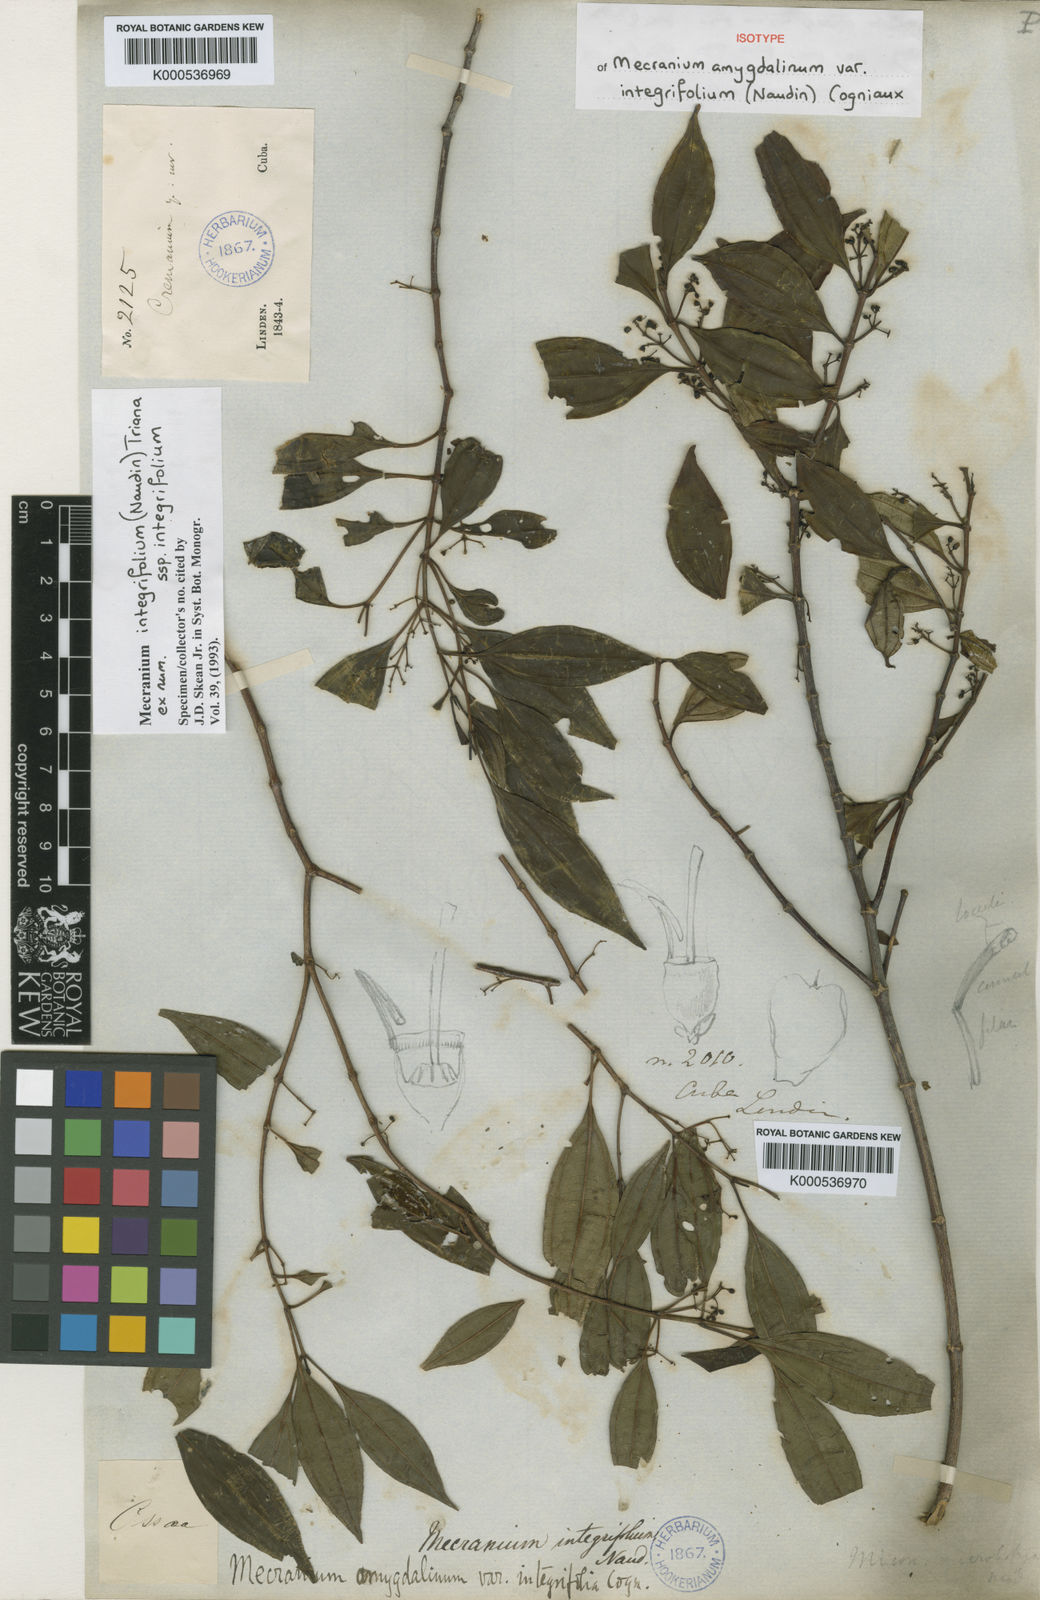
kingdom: Plantae
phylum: Tracheophyta
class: Magnoliopsida
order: Myrtales
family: Melastomataceae
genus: Miconia
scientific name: Miconia antillana
